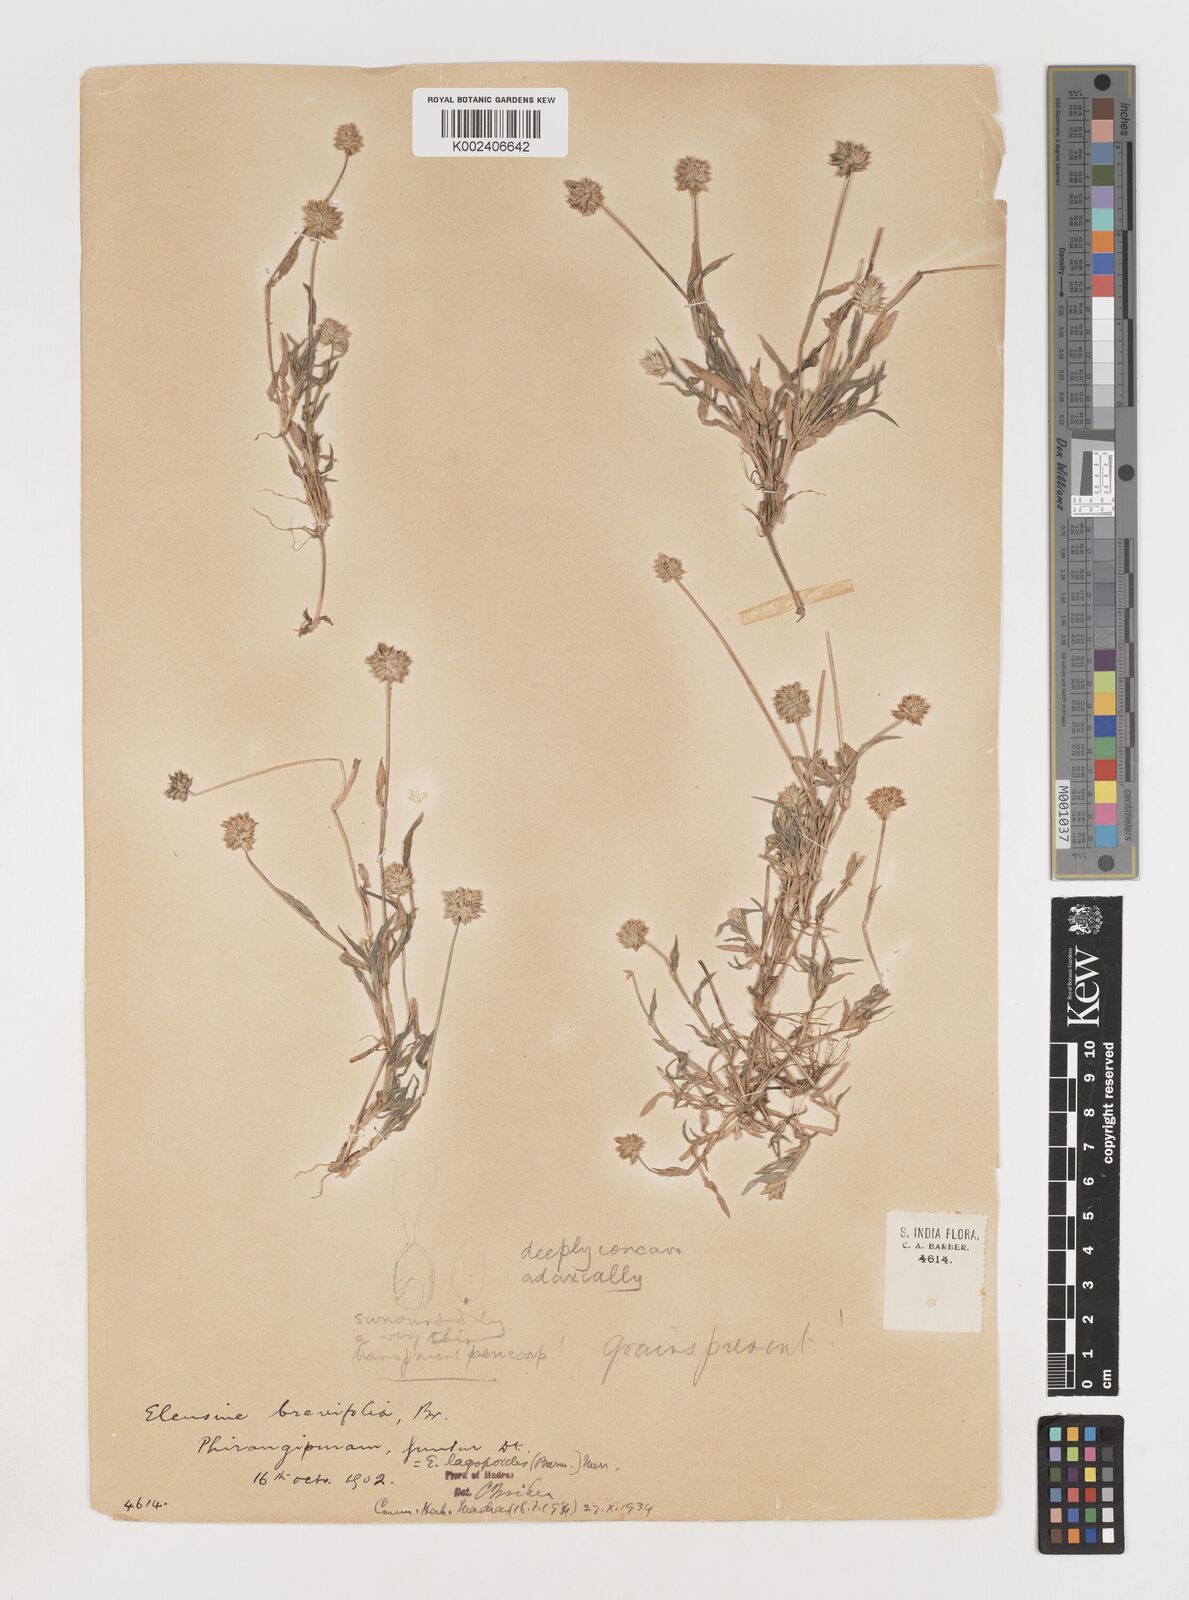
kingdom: Plantae
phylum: Tracheophyta
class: Liliopsida
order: Poales
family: Poaceae
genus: Coelachyrum
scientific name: Coelachyrum lagopoides
